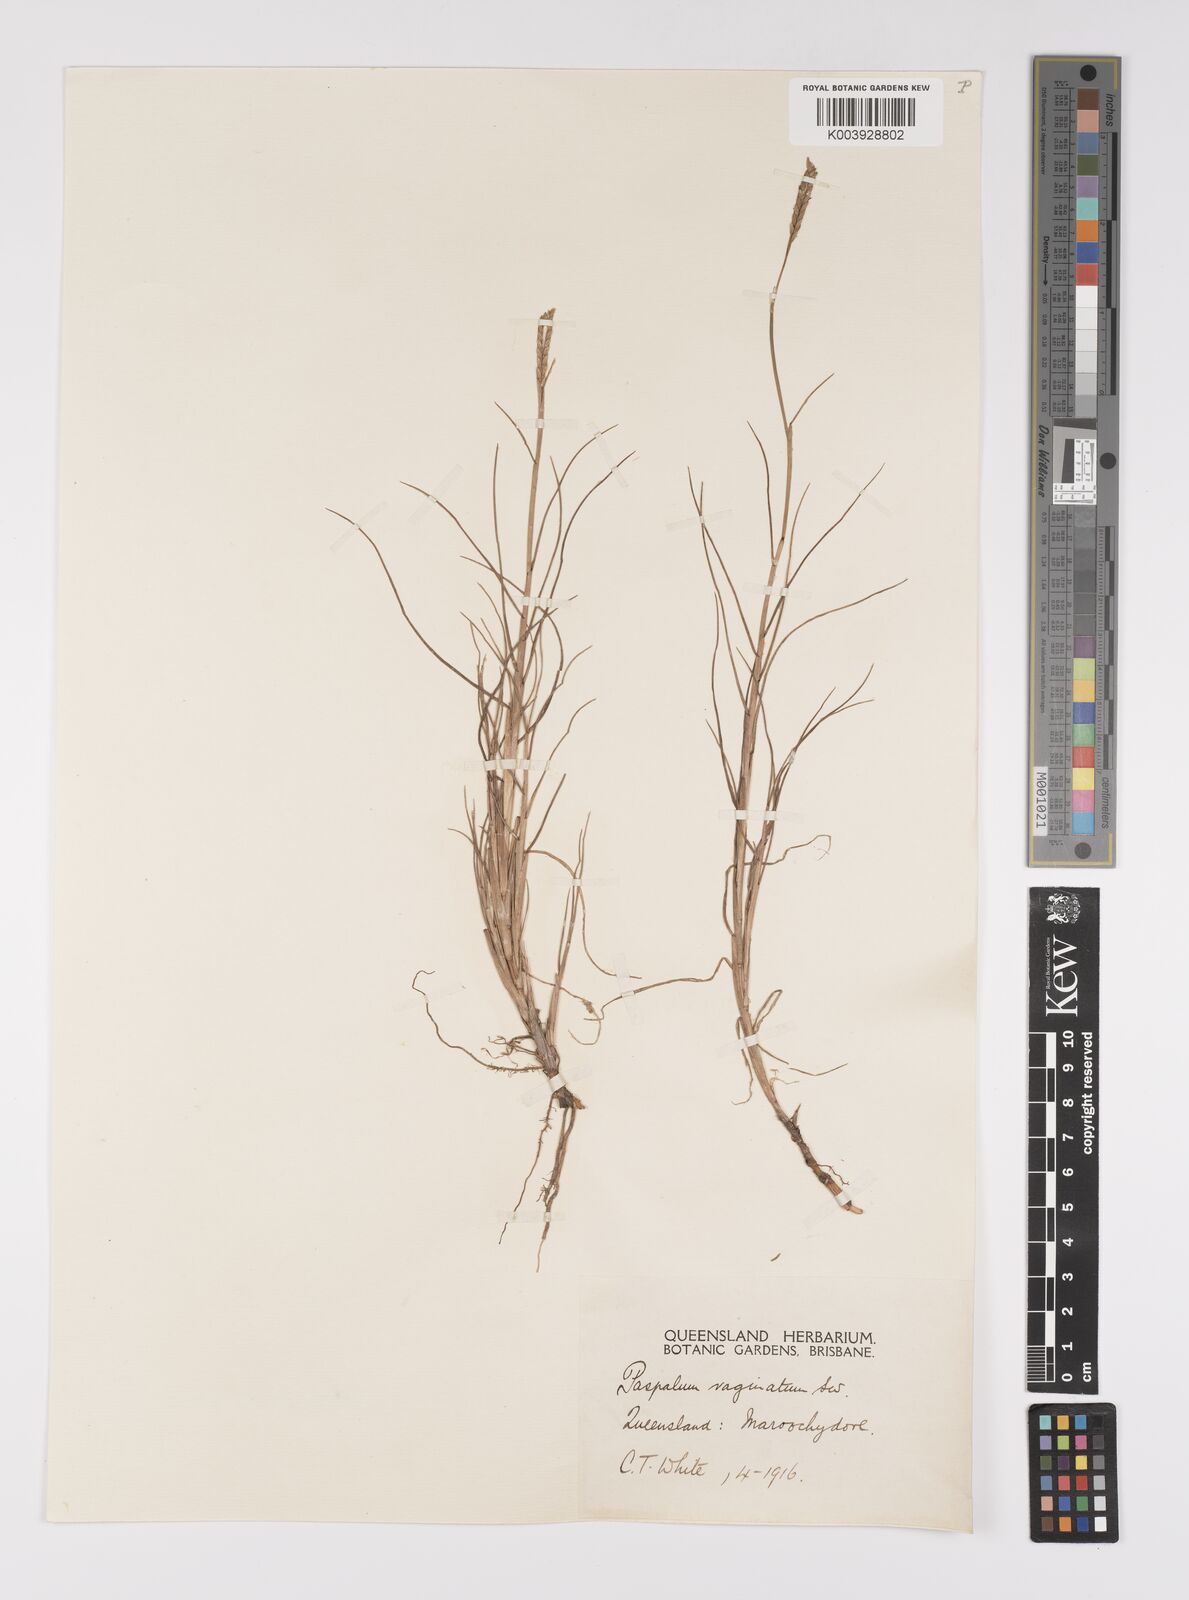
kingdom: Plantae
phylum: Tracheophyta
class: Liliopsida
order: Poales
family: Poaceae
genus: Paspalum
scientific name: Paspalum vaginatum
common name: Seashore paspalum
